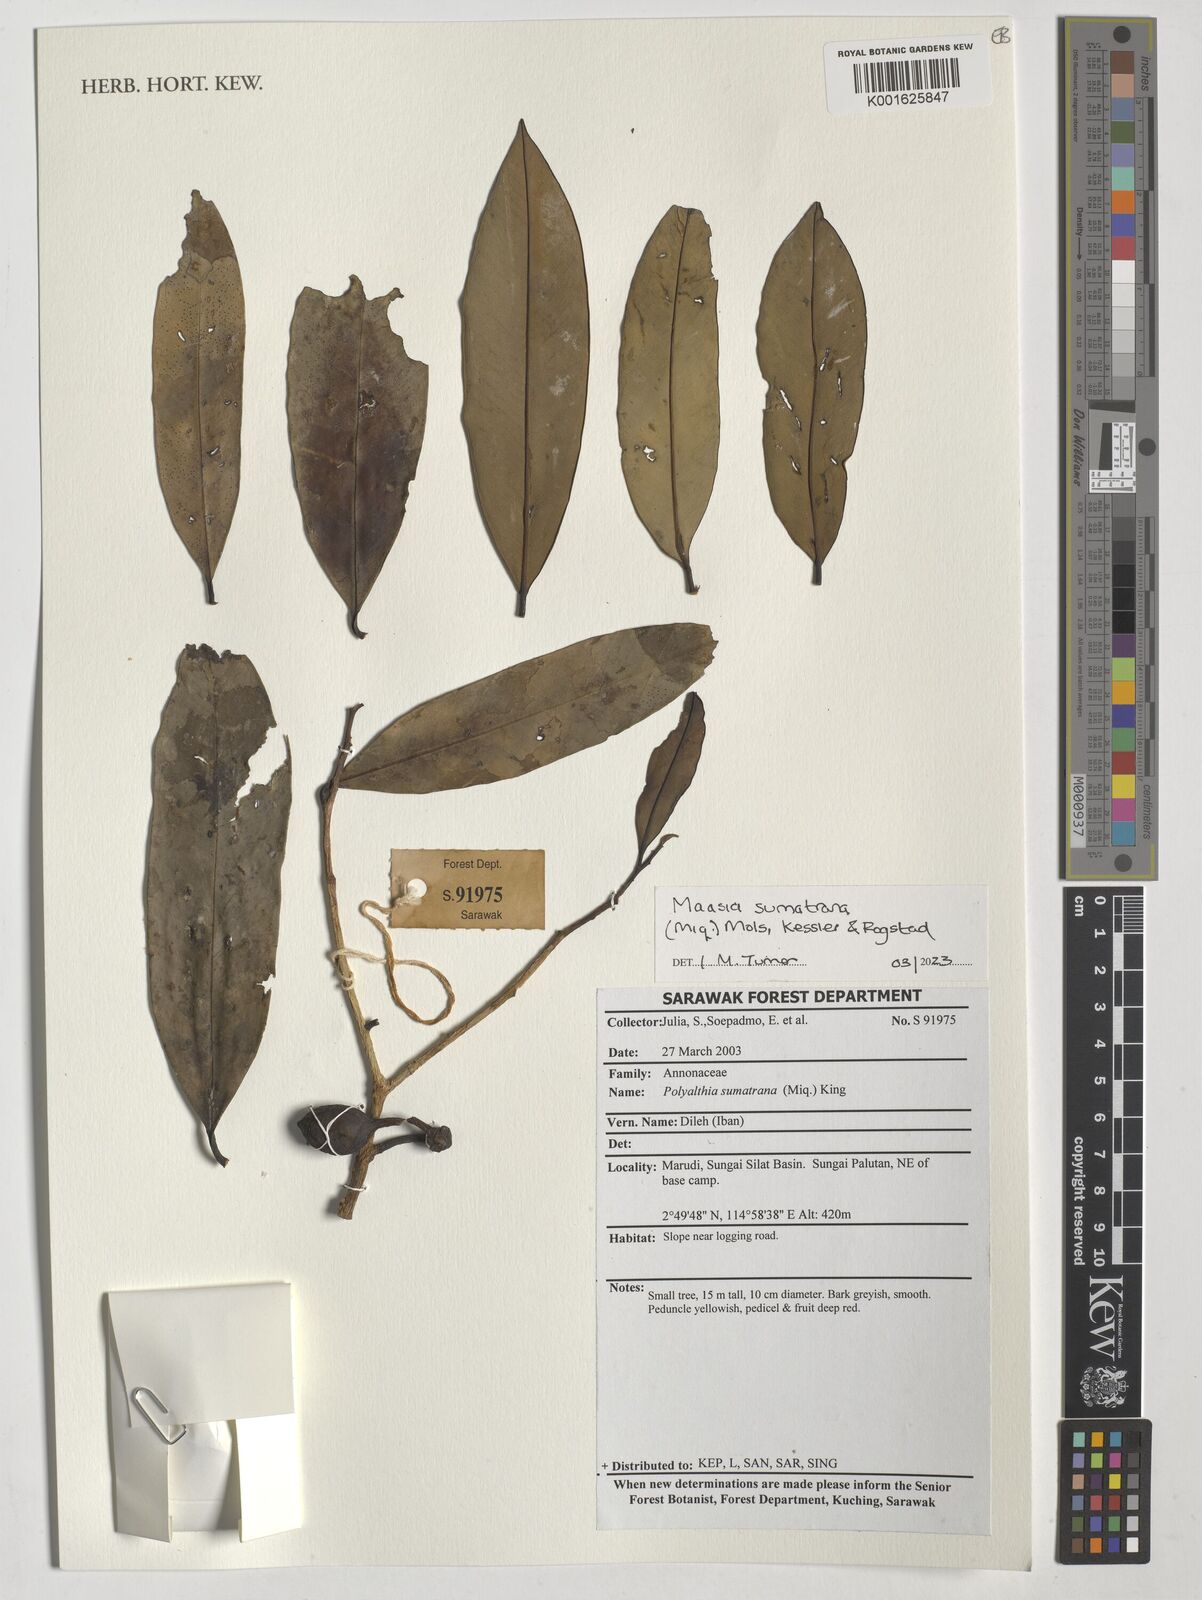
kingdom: Plantae
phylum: Tracheophyta
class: Magnoliopsida
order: Magnoliales
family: Annonaceae
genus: Maasia
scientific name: Maasia sumatrana
